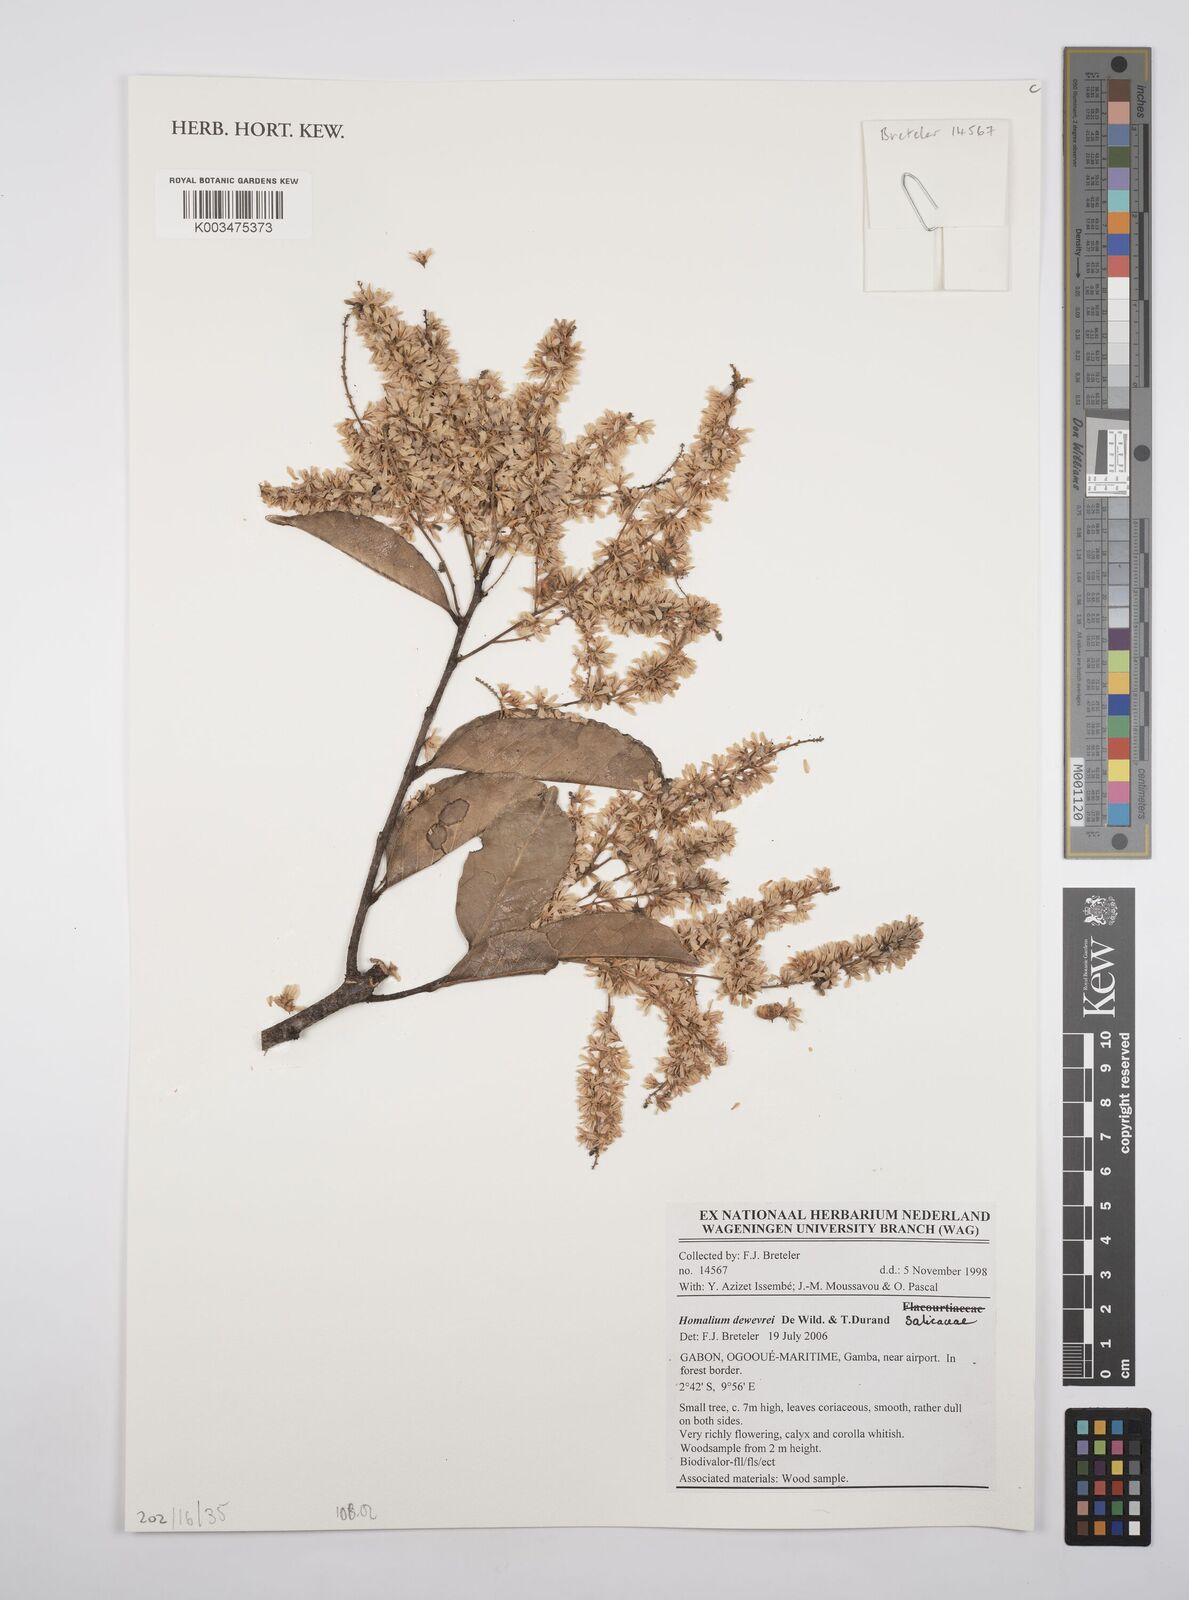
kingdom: Plantae
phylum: Tracheophyta
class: Magnoliopsida
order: Malpighiales
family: Salicaceae
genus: Homalium
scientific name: Homalium dewevrei
